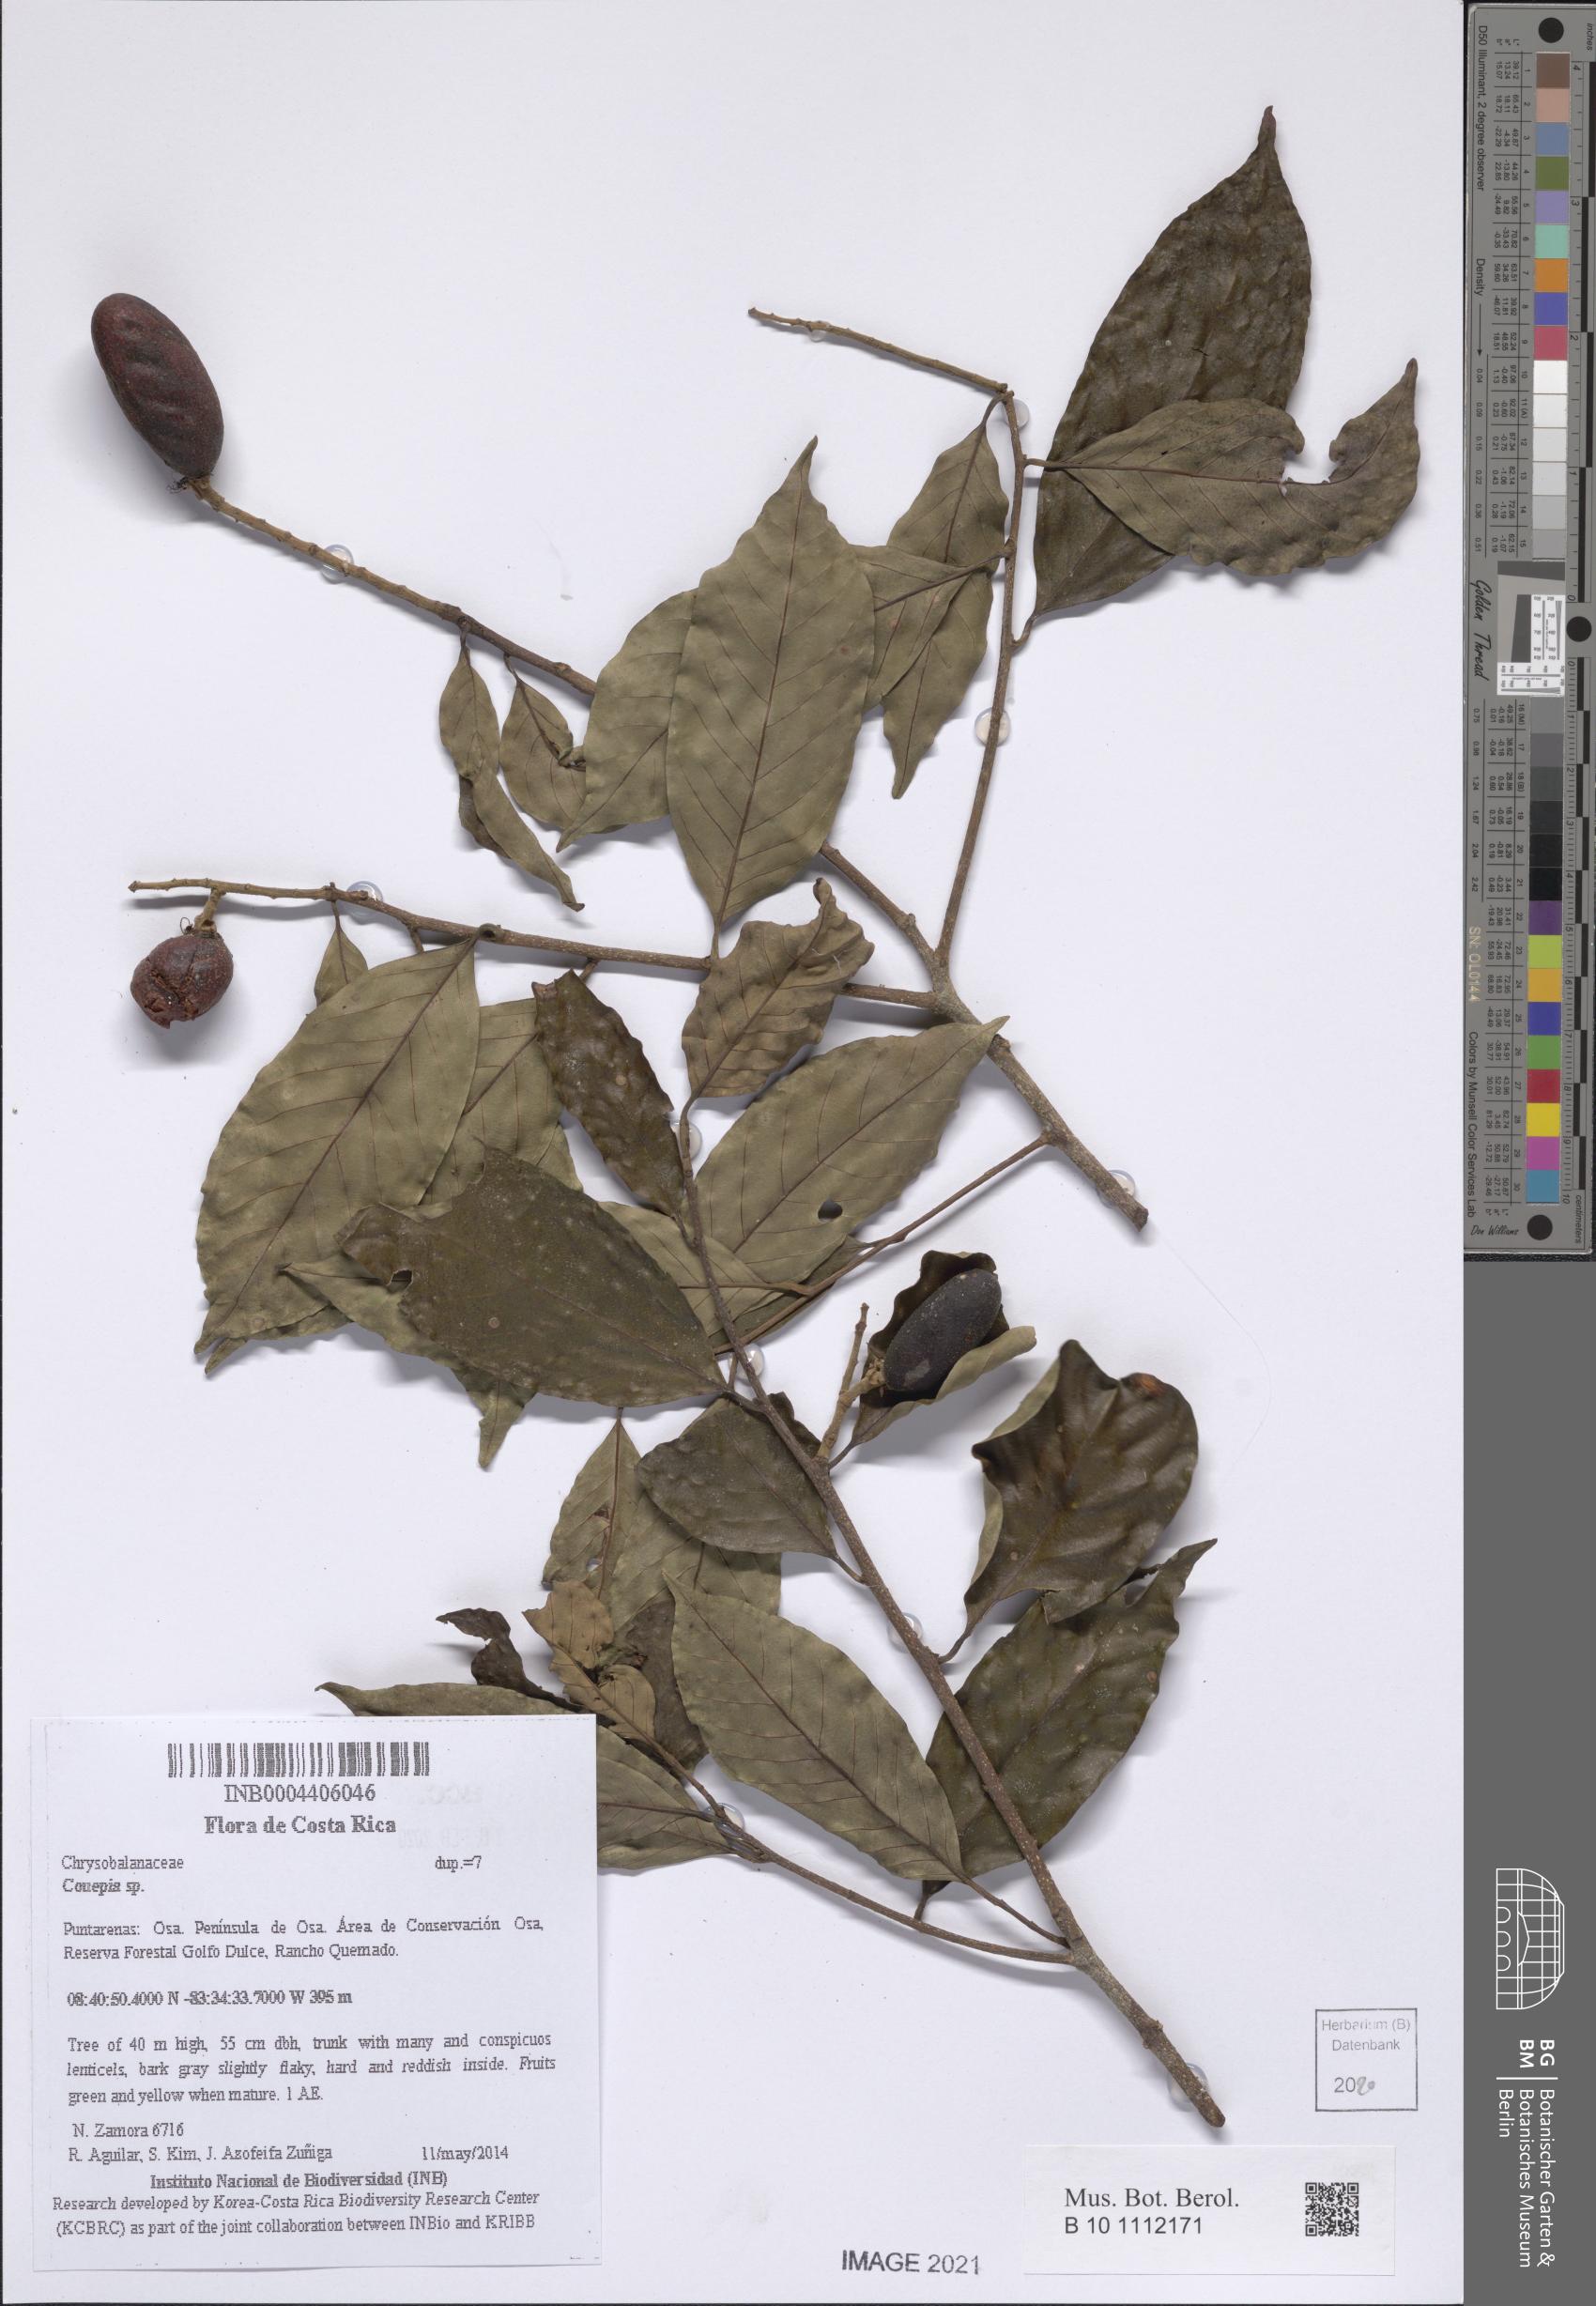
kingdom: Plantae
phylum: Tracheophyta
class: Magnoliopsida
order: Malpighiales
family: Chrysobalanaceae
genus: Couepia
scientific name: Couepia
